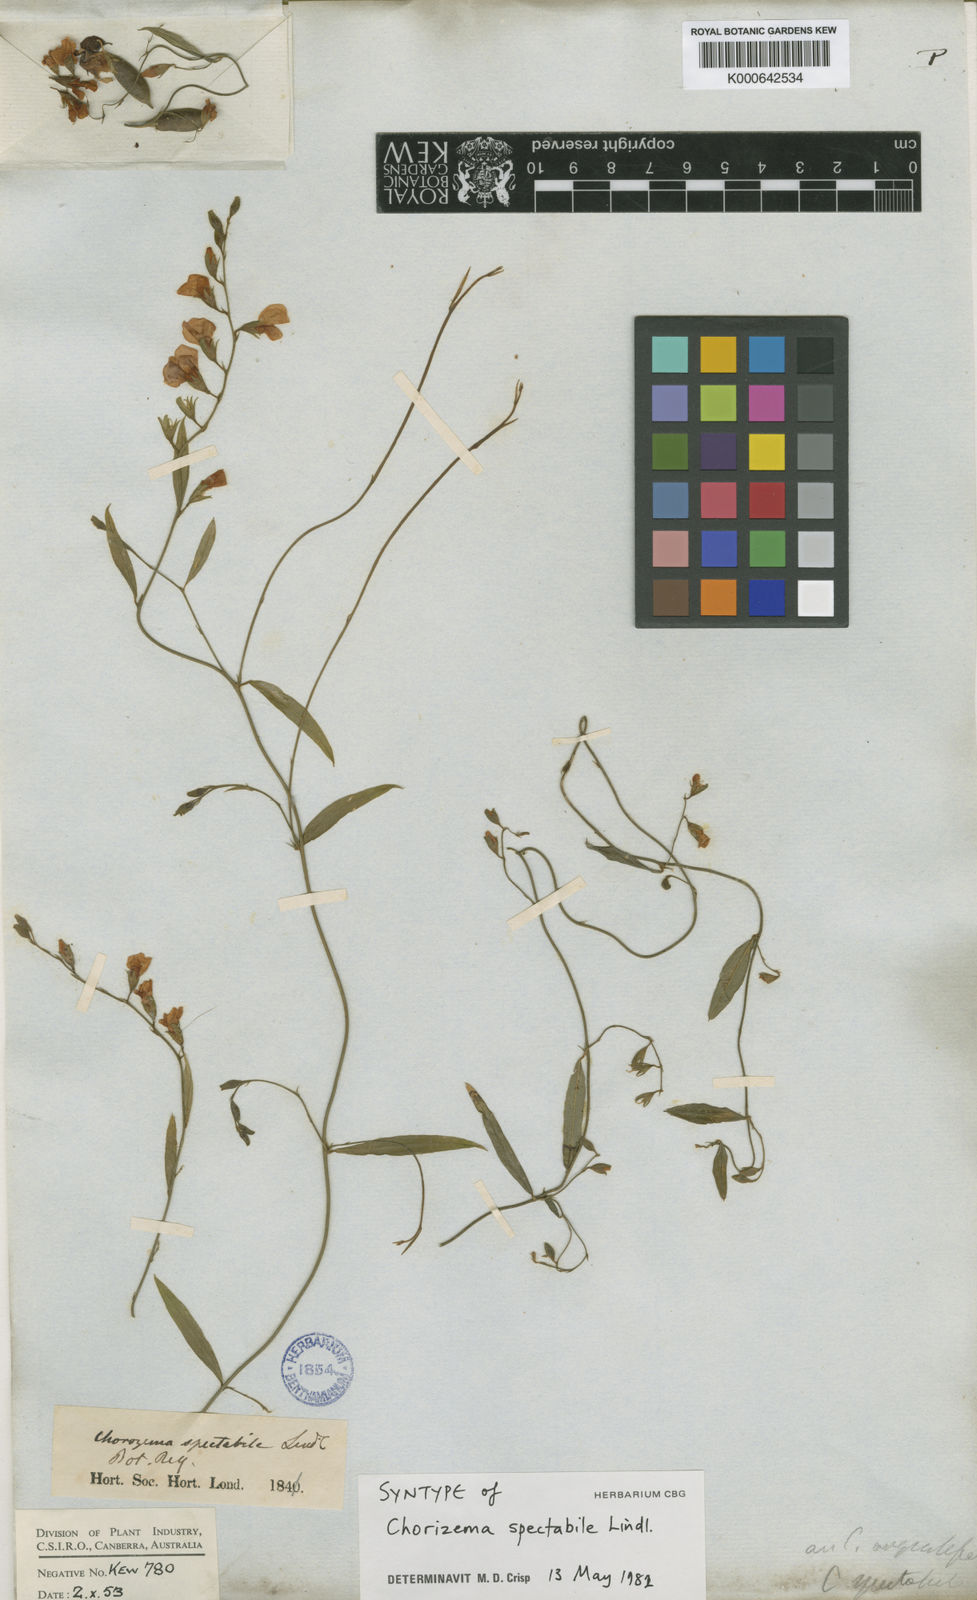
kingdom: Plantae
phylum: Tracheophyta
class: Magnoliopsida
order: Fabales
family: Fabaceae
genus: Chorizema
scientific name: Chorizema diversifolium
